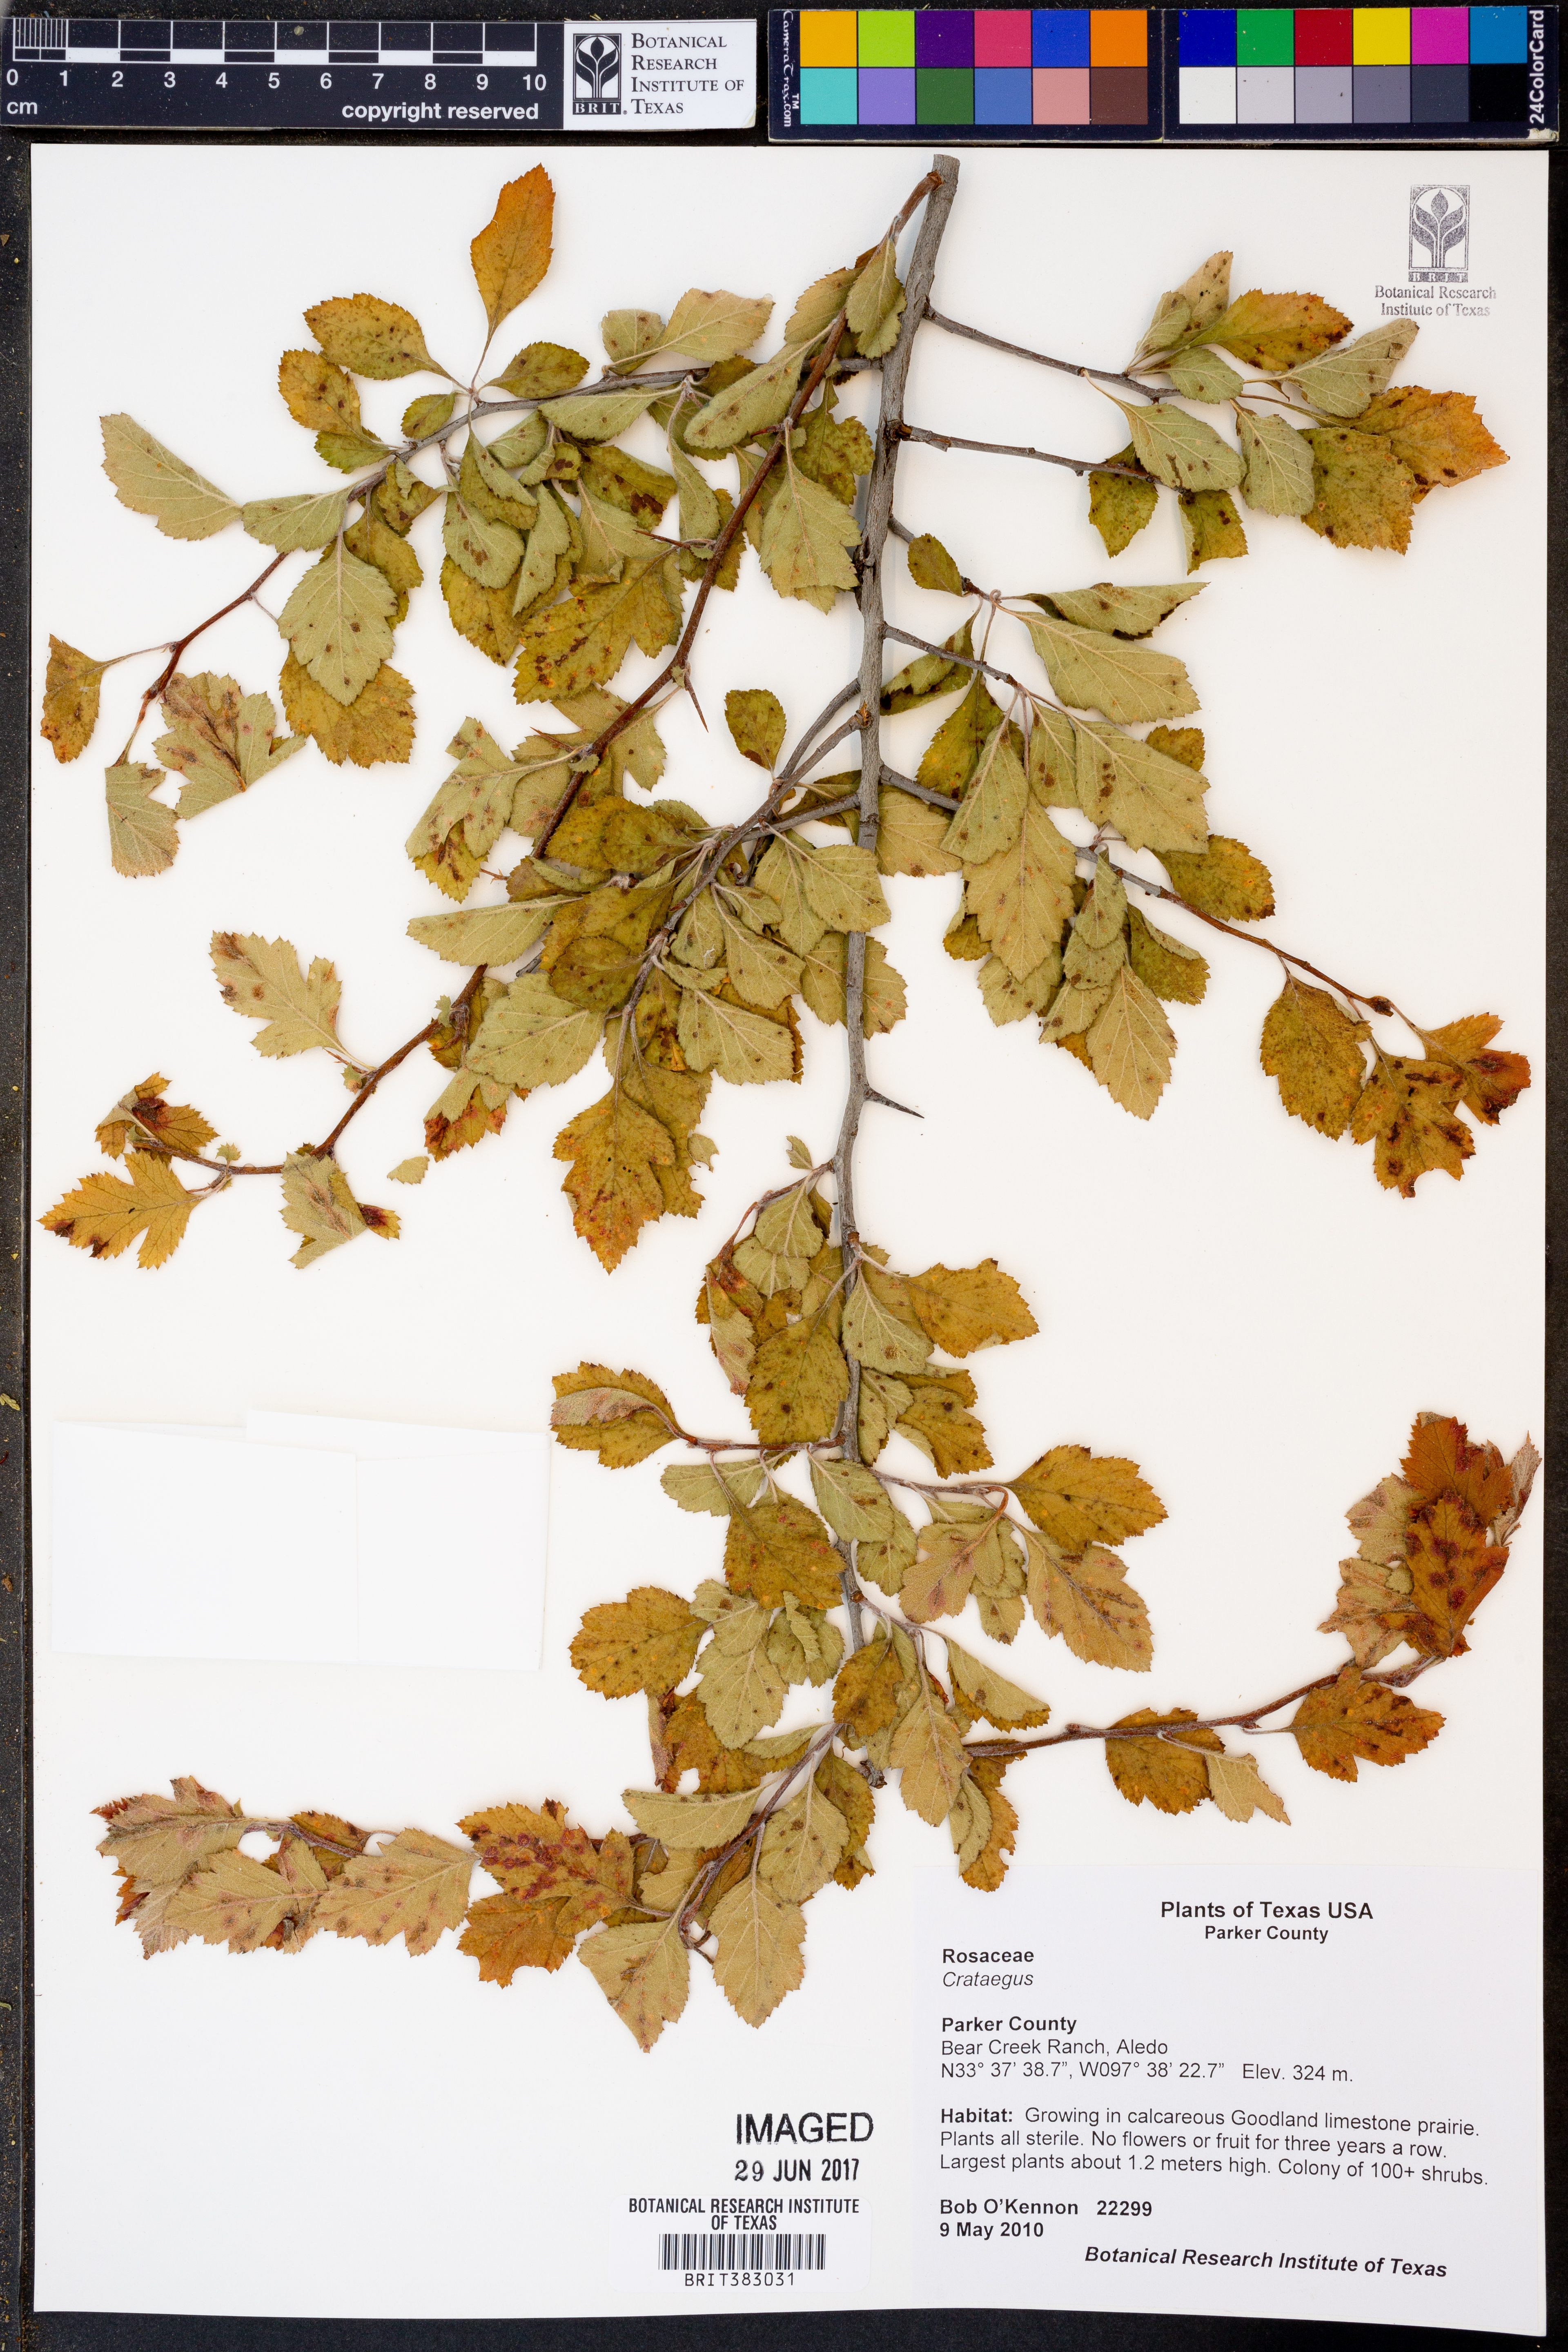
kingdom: Plantae
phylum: Tracheophyta
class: Magnoliopsida
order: Rosales
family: Rosaceae
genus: Crataegus
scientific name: Crataegus
